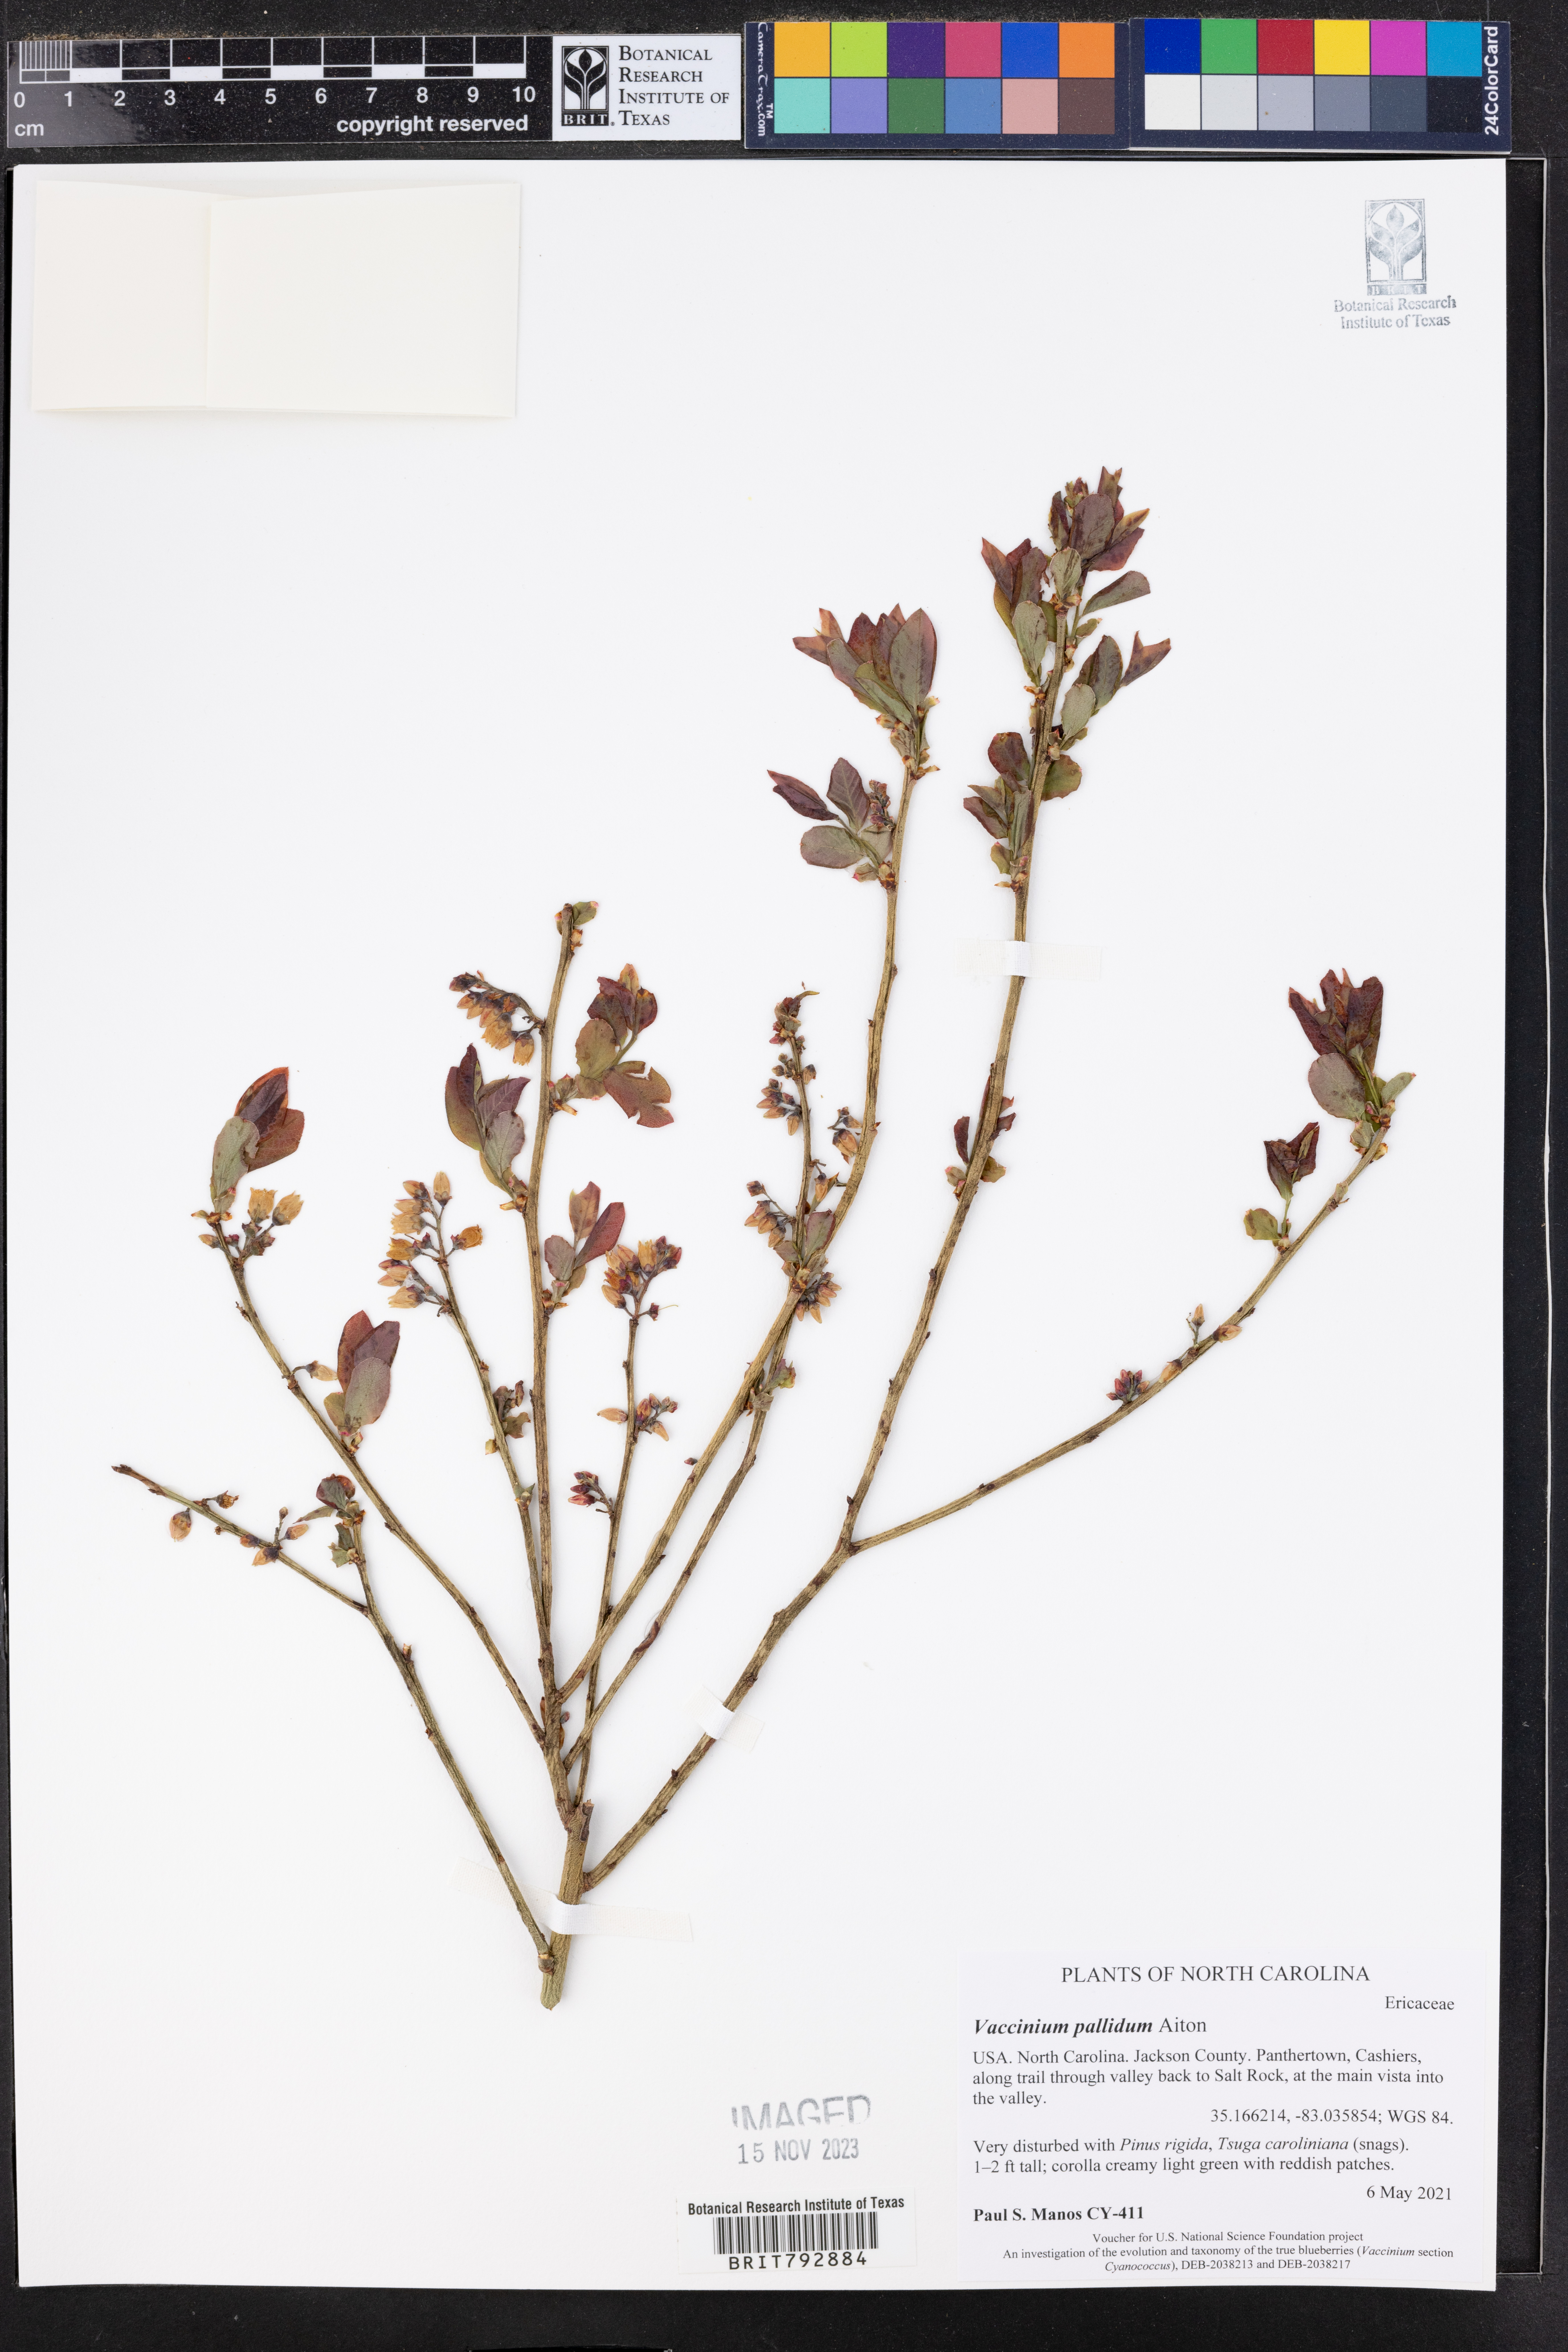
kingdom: Plantae
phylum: Tracheophyta
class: Magnoliopsida
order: Ericales
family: Ericaceae
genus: Vaccinium
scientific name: Vaccinium pallidum
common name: Blue ridge blueberry
